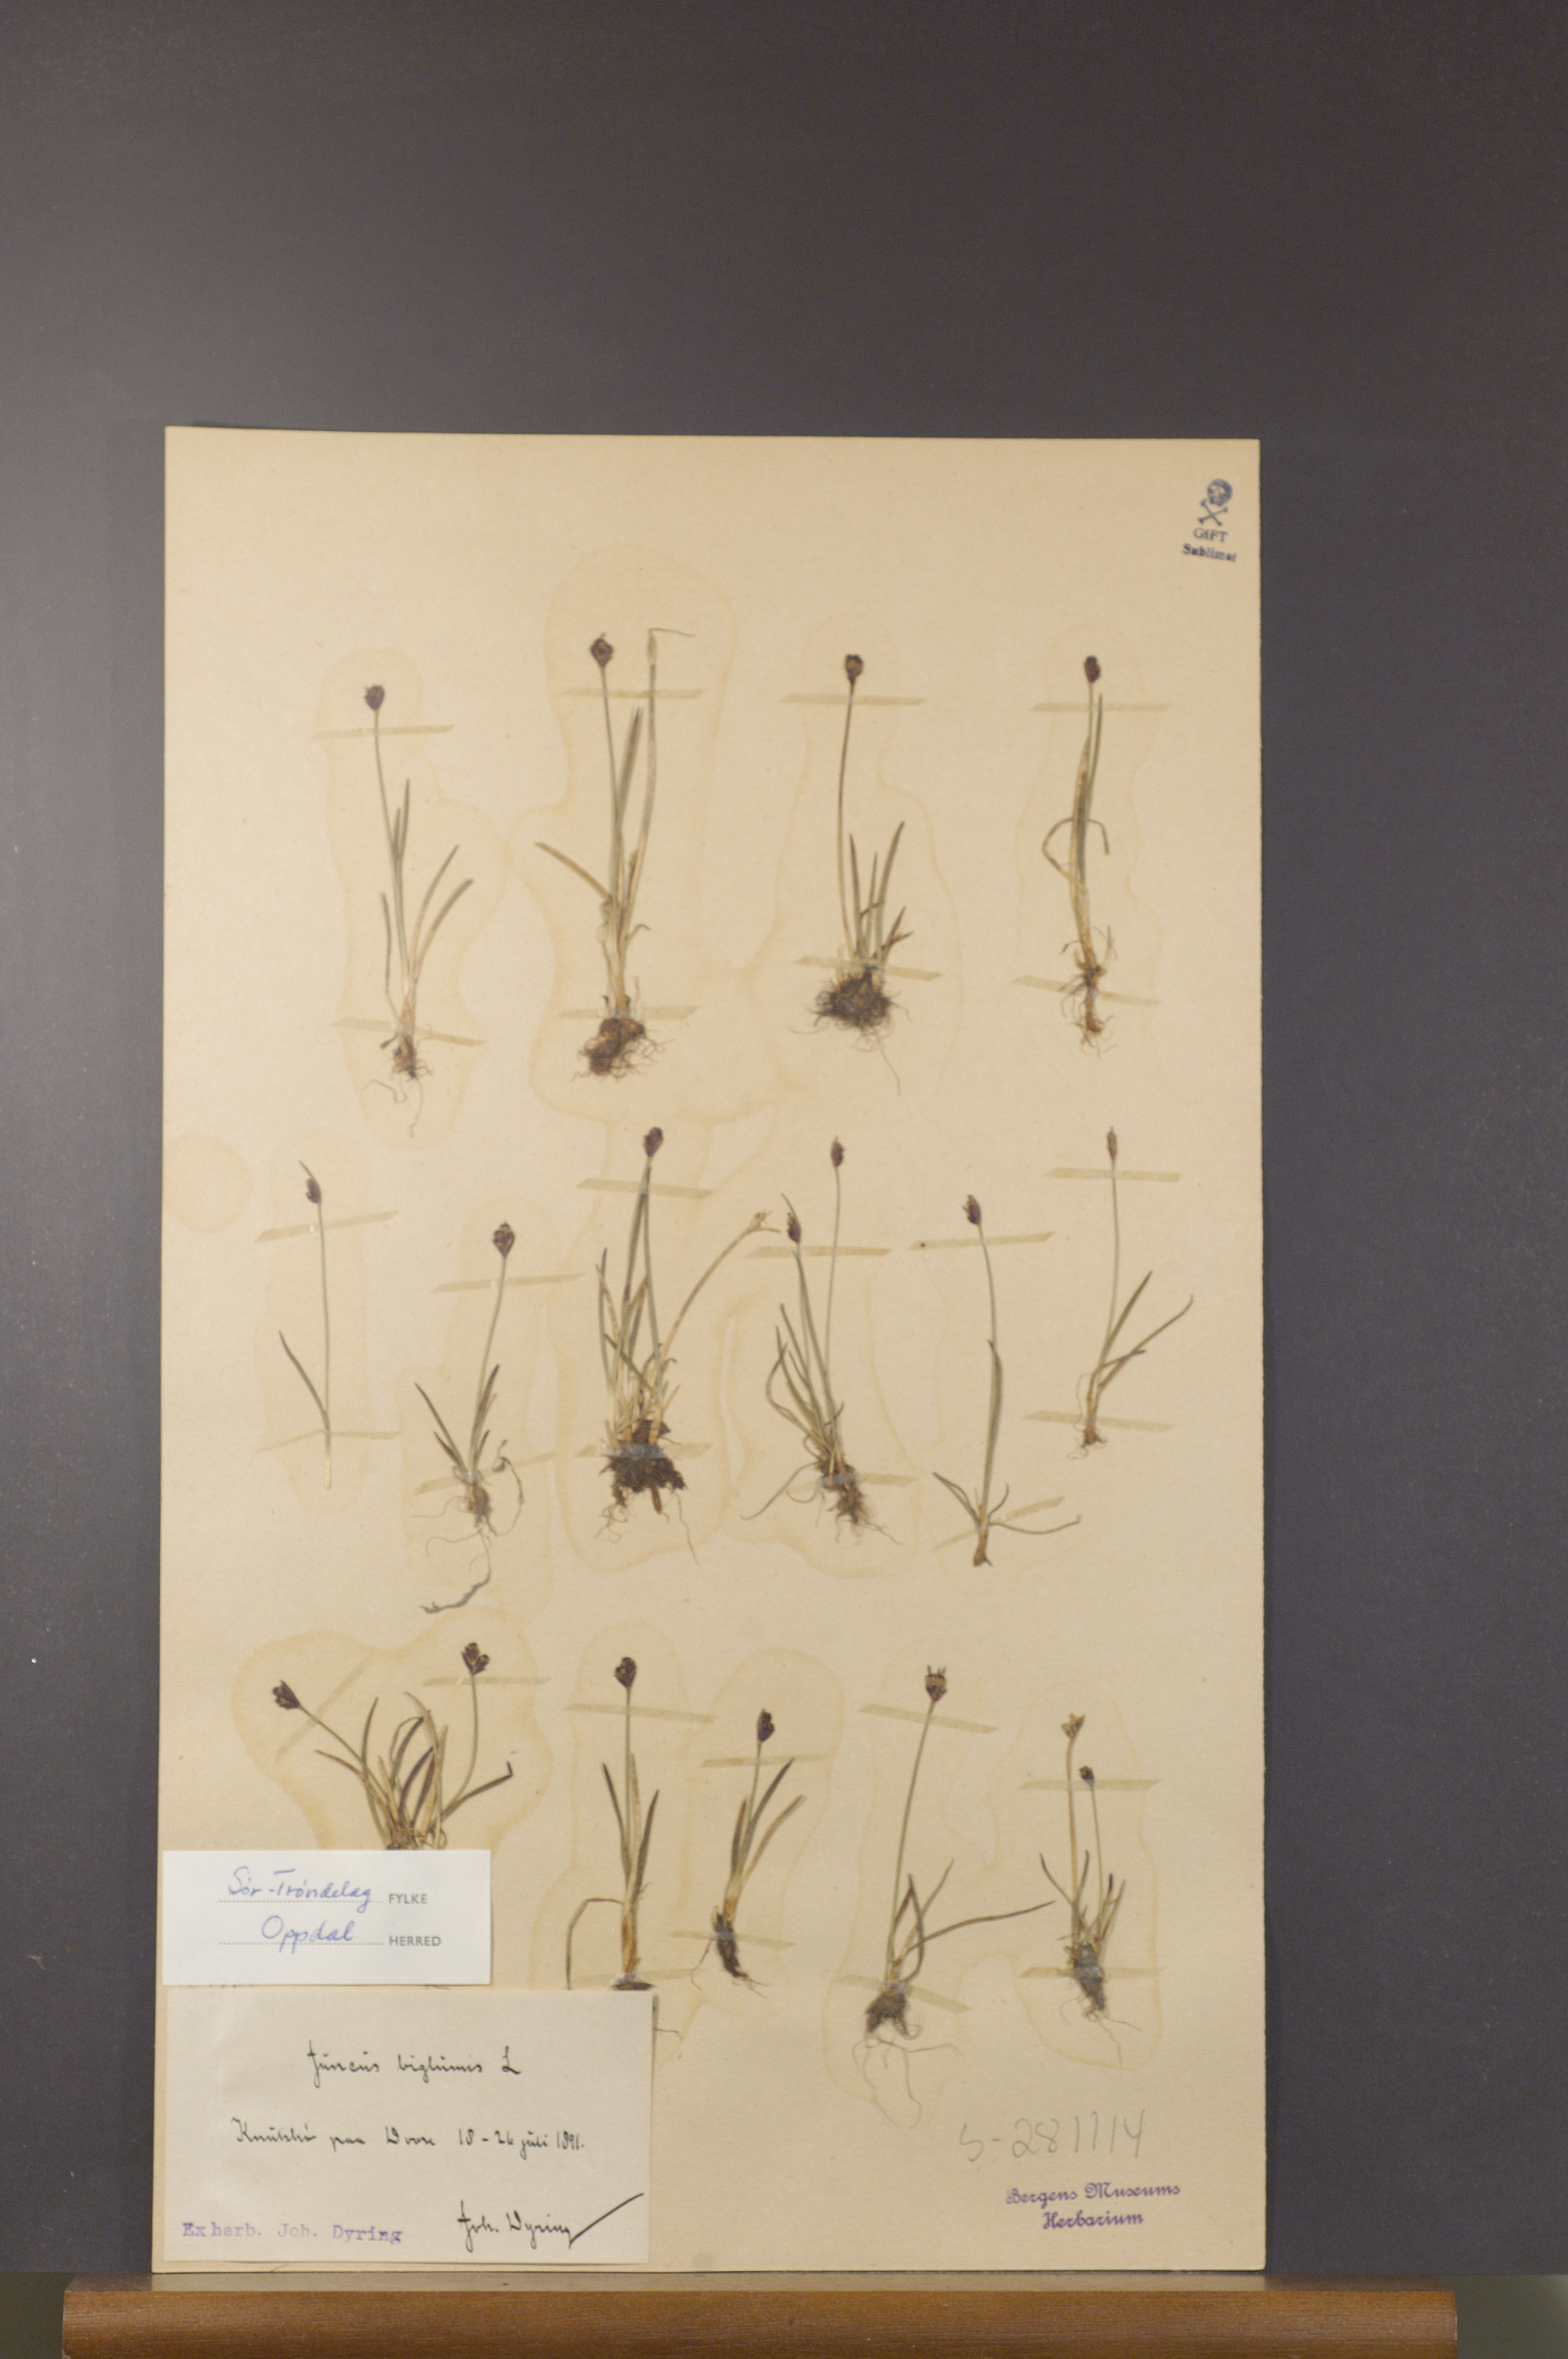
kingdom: Plantae
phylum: Tracheophyta
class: Liliopsida
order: Poales
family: Juncaceae
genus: Juncus
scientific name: Juncus biglumis
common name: Two-flowered rush
